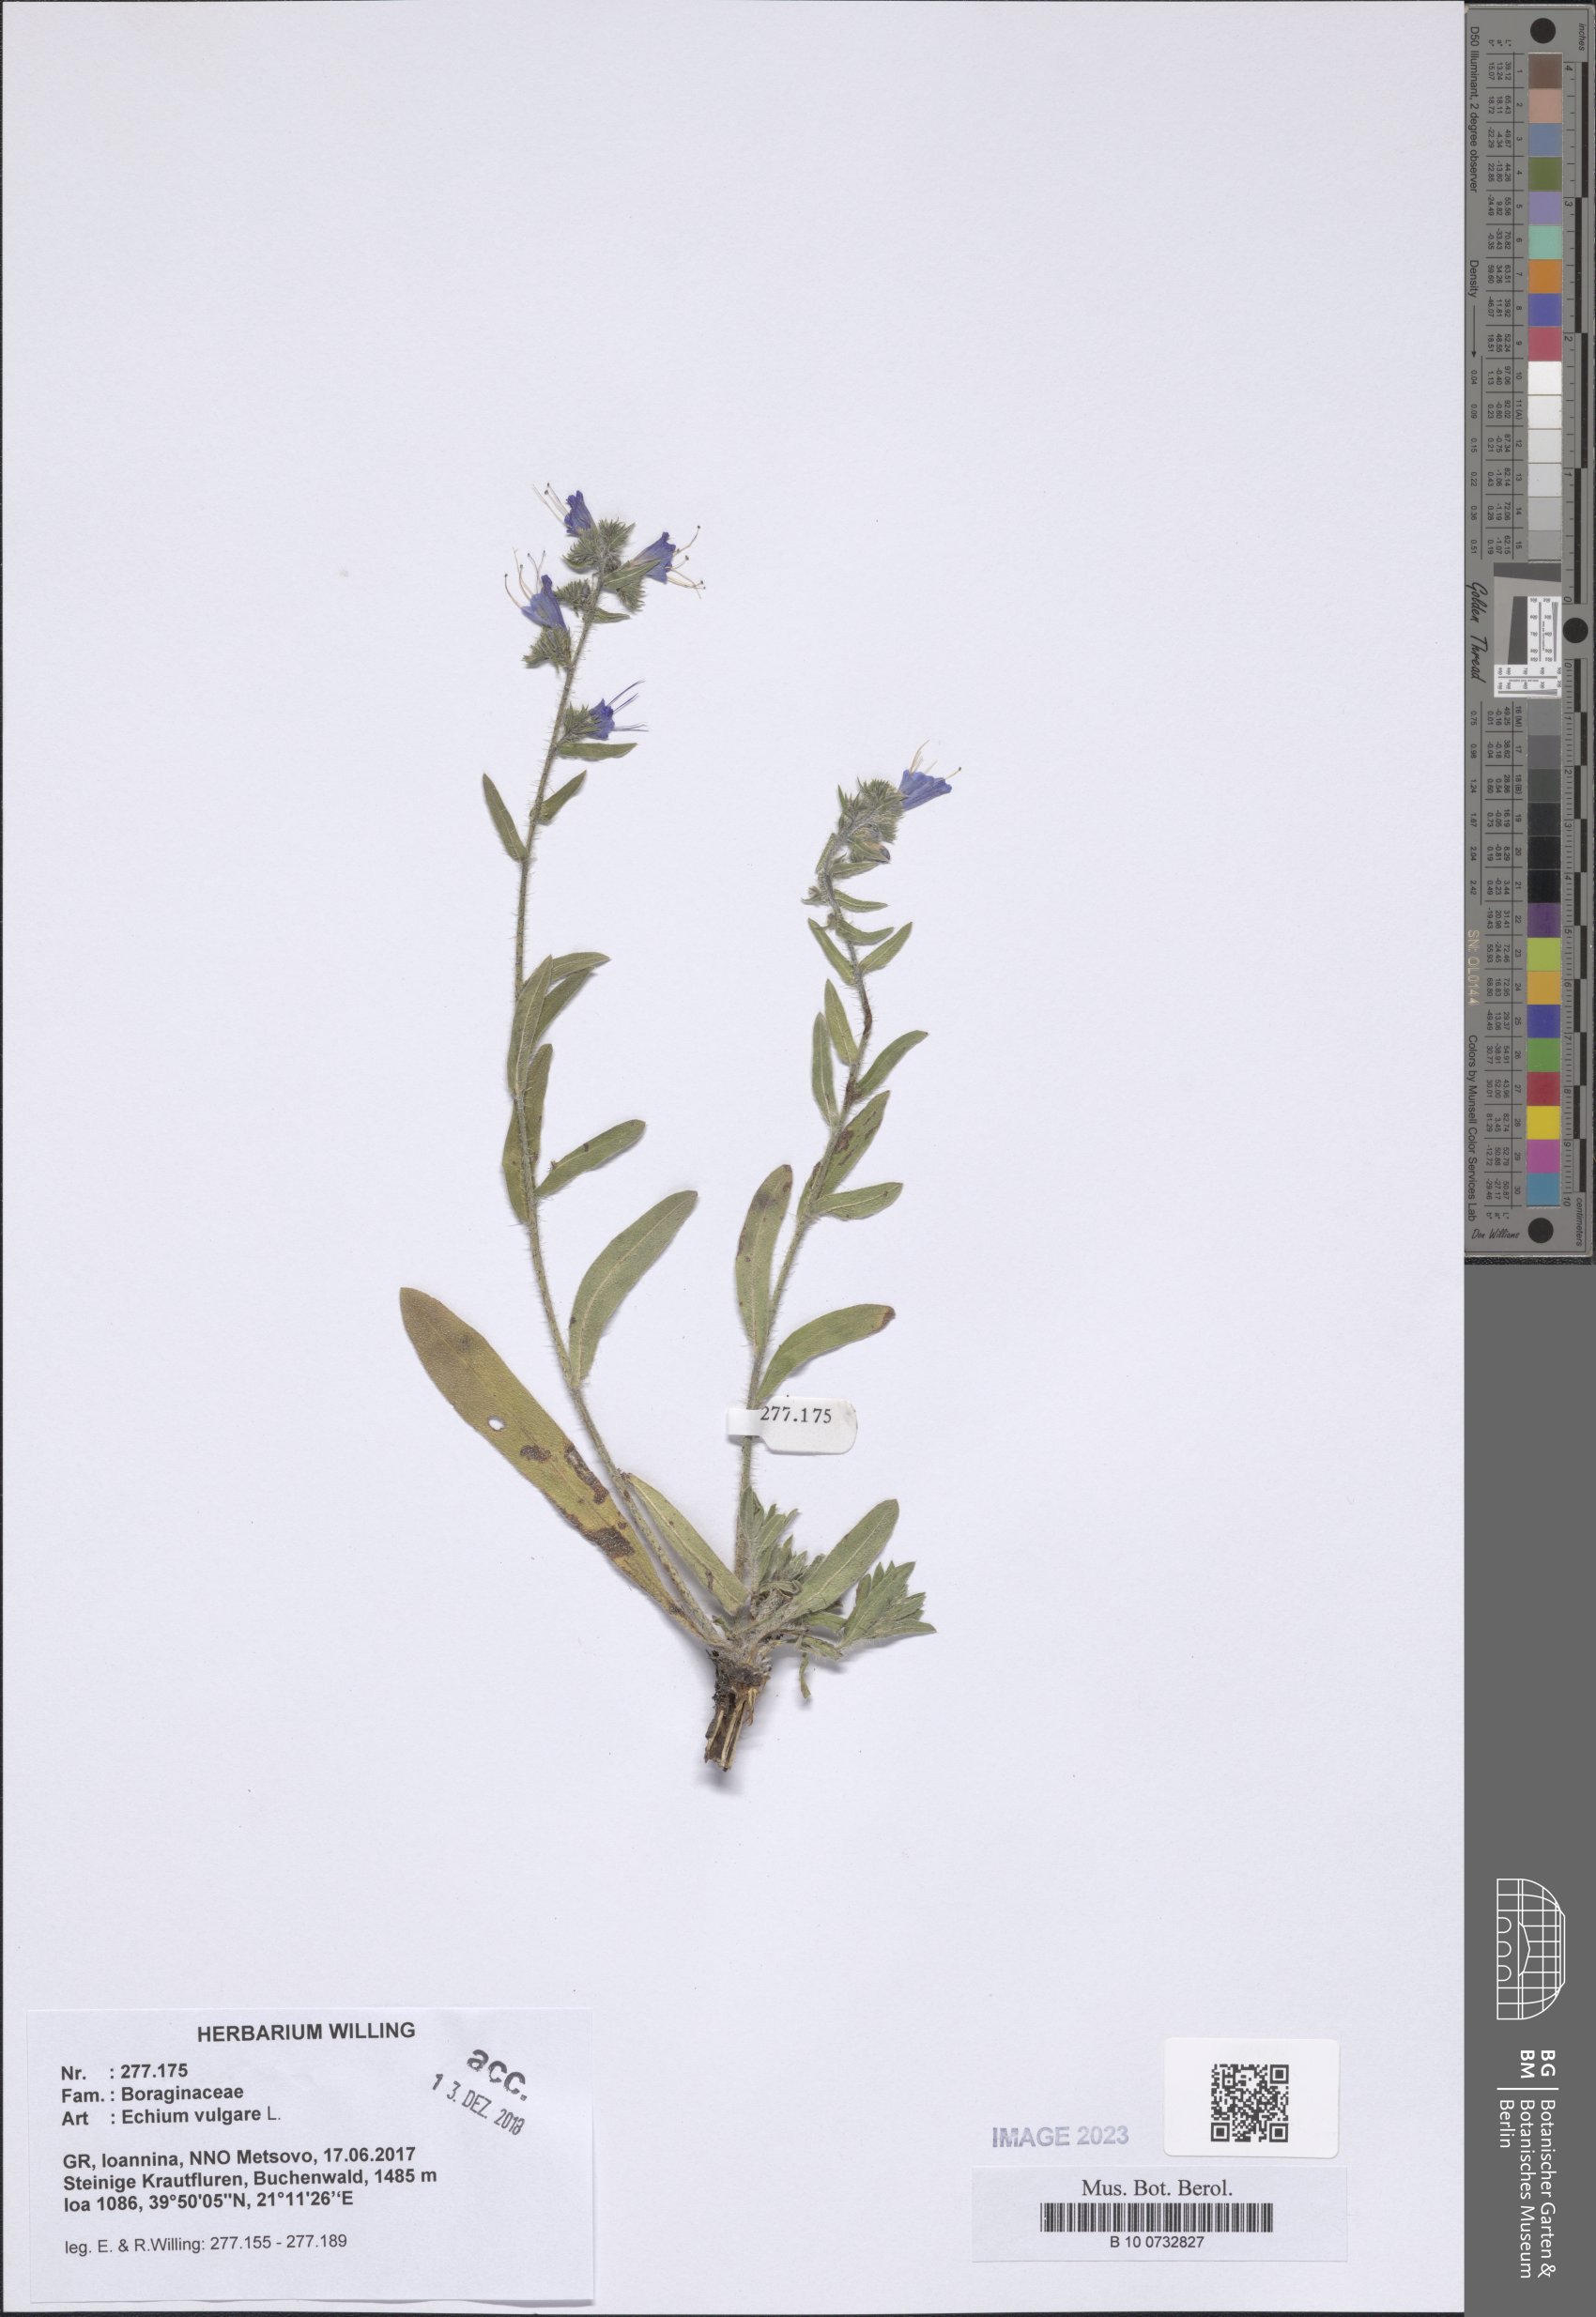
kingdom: Plantae
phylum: Tracheophyta
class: Magnoliopsida
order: Boraginales
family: Boraginaceae
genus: Echium
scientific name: Echium vulgare
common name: Common viper's bugloss
